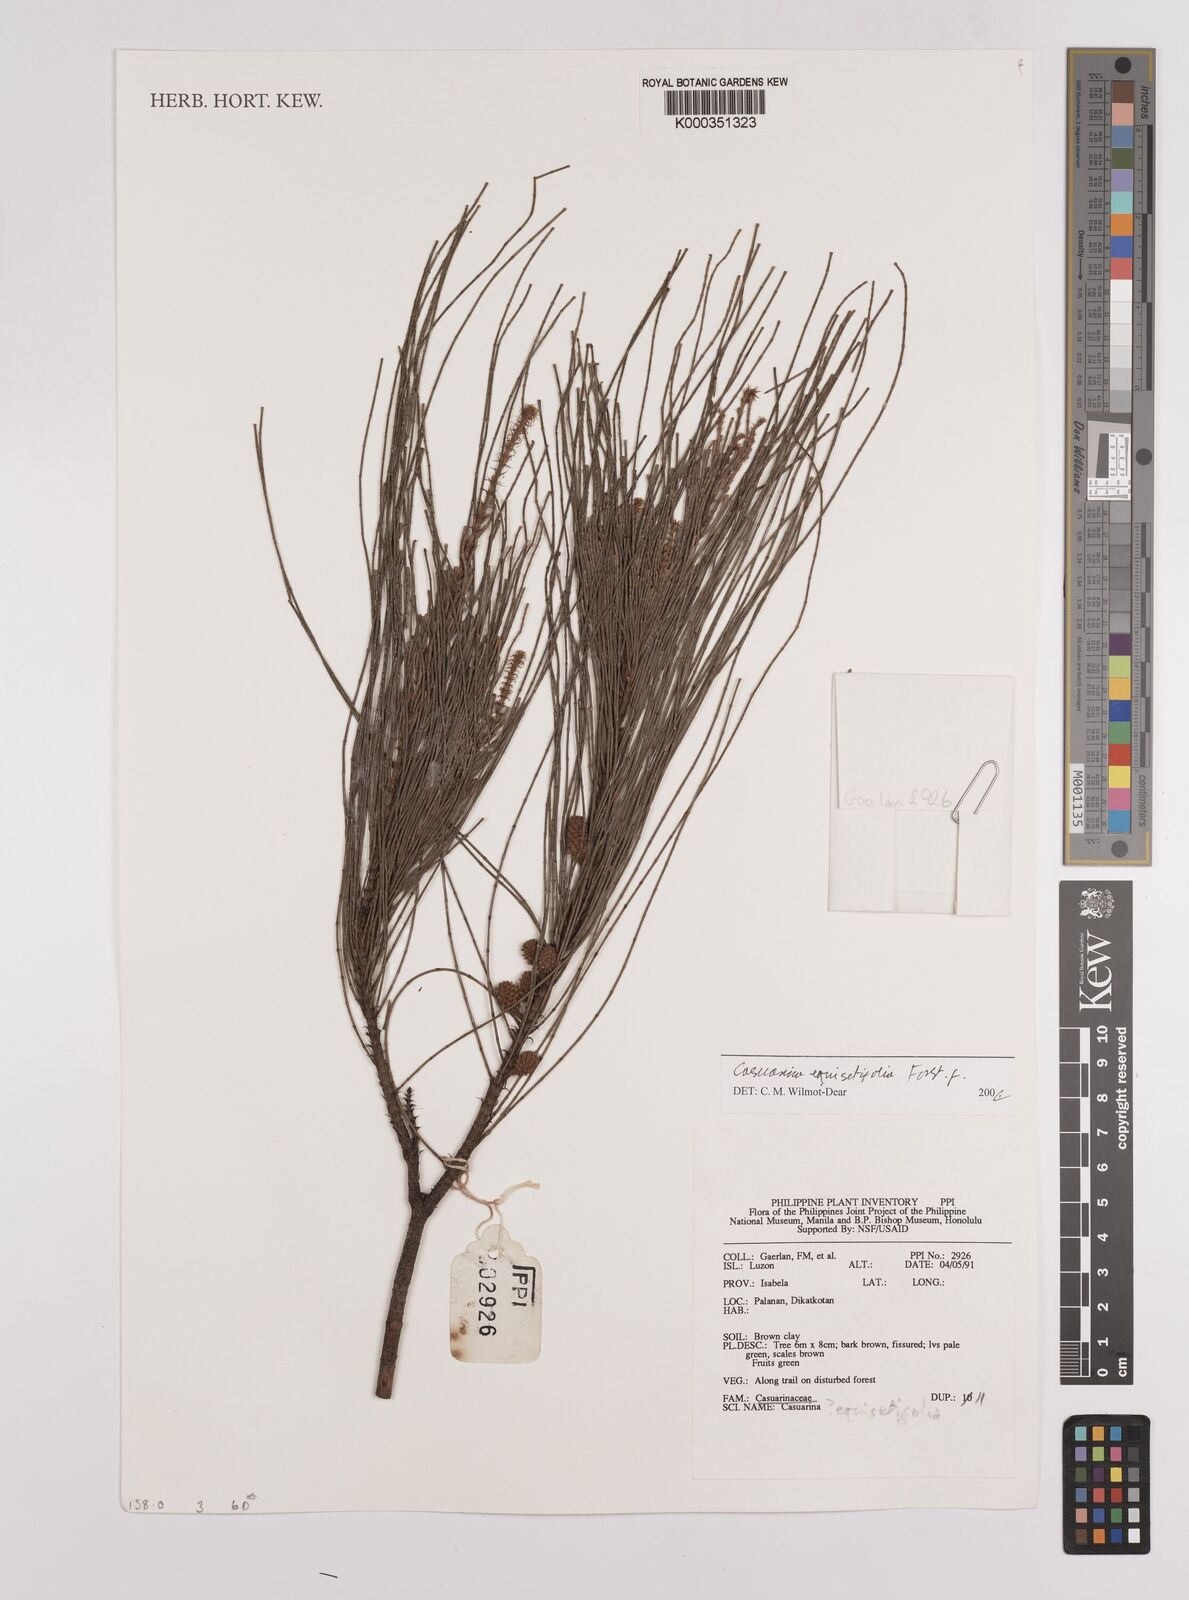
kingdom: Plantae
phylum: Tracheophyta
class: Magnoliopsida
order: Fagales
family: Casuarinaceae
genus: Casuarina
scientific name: Casuarina
